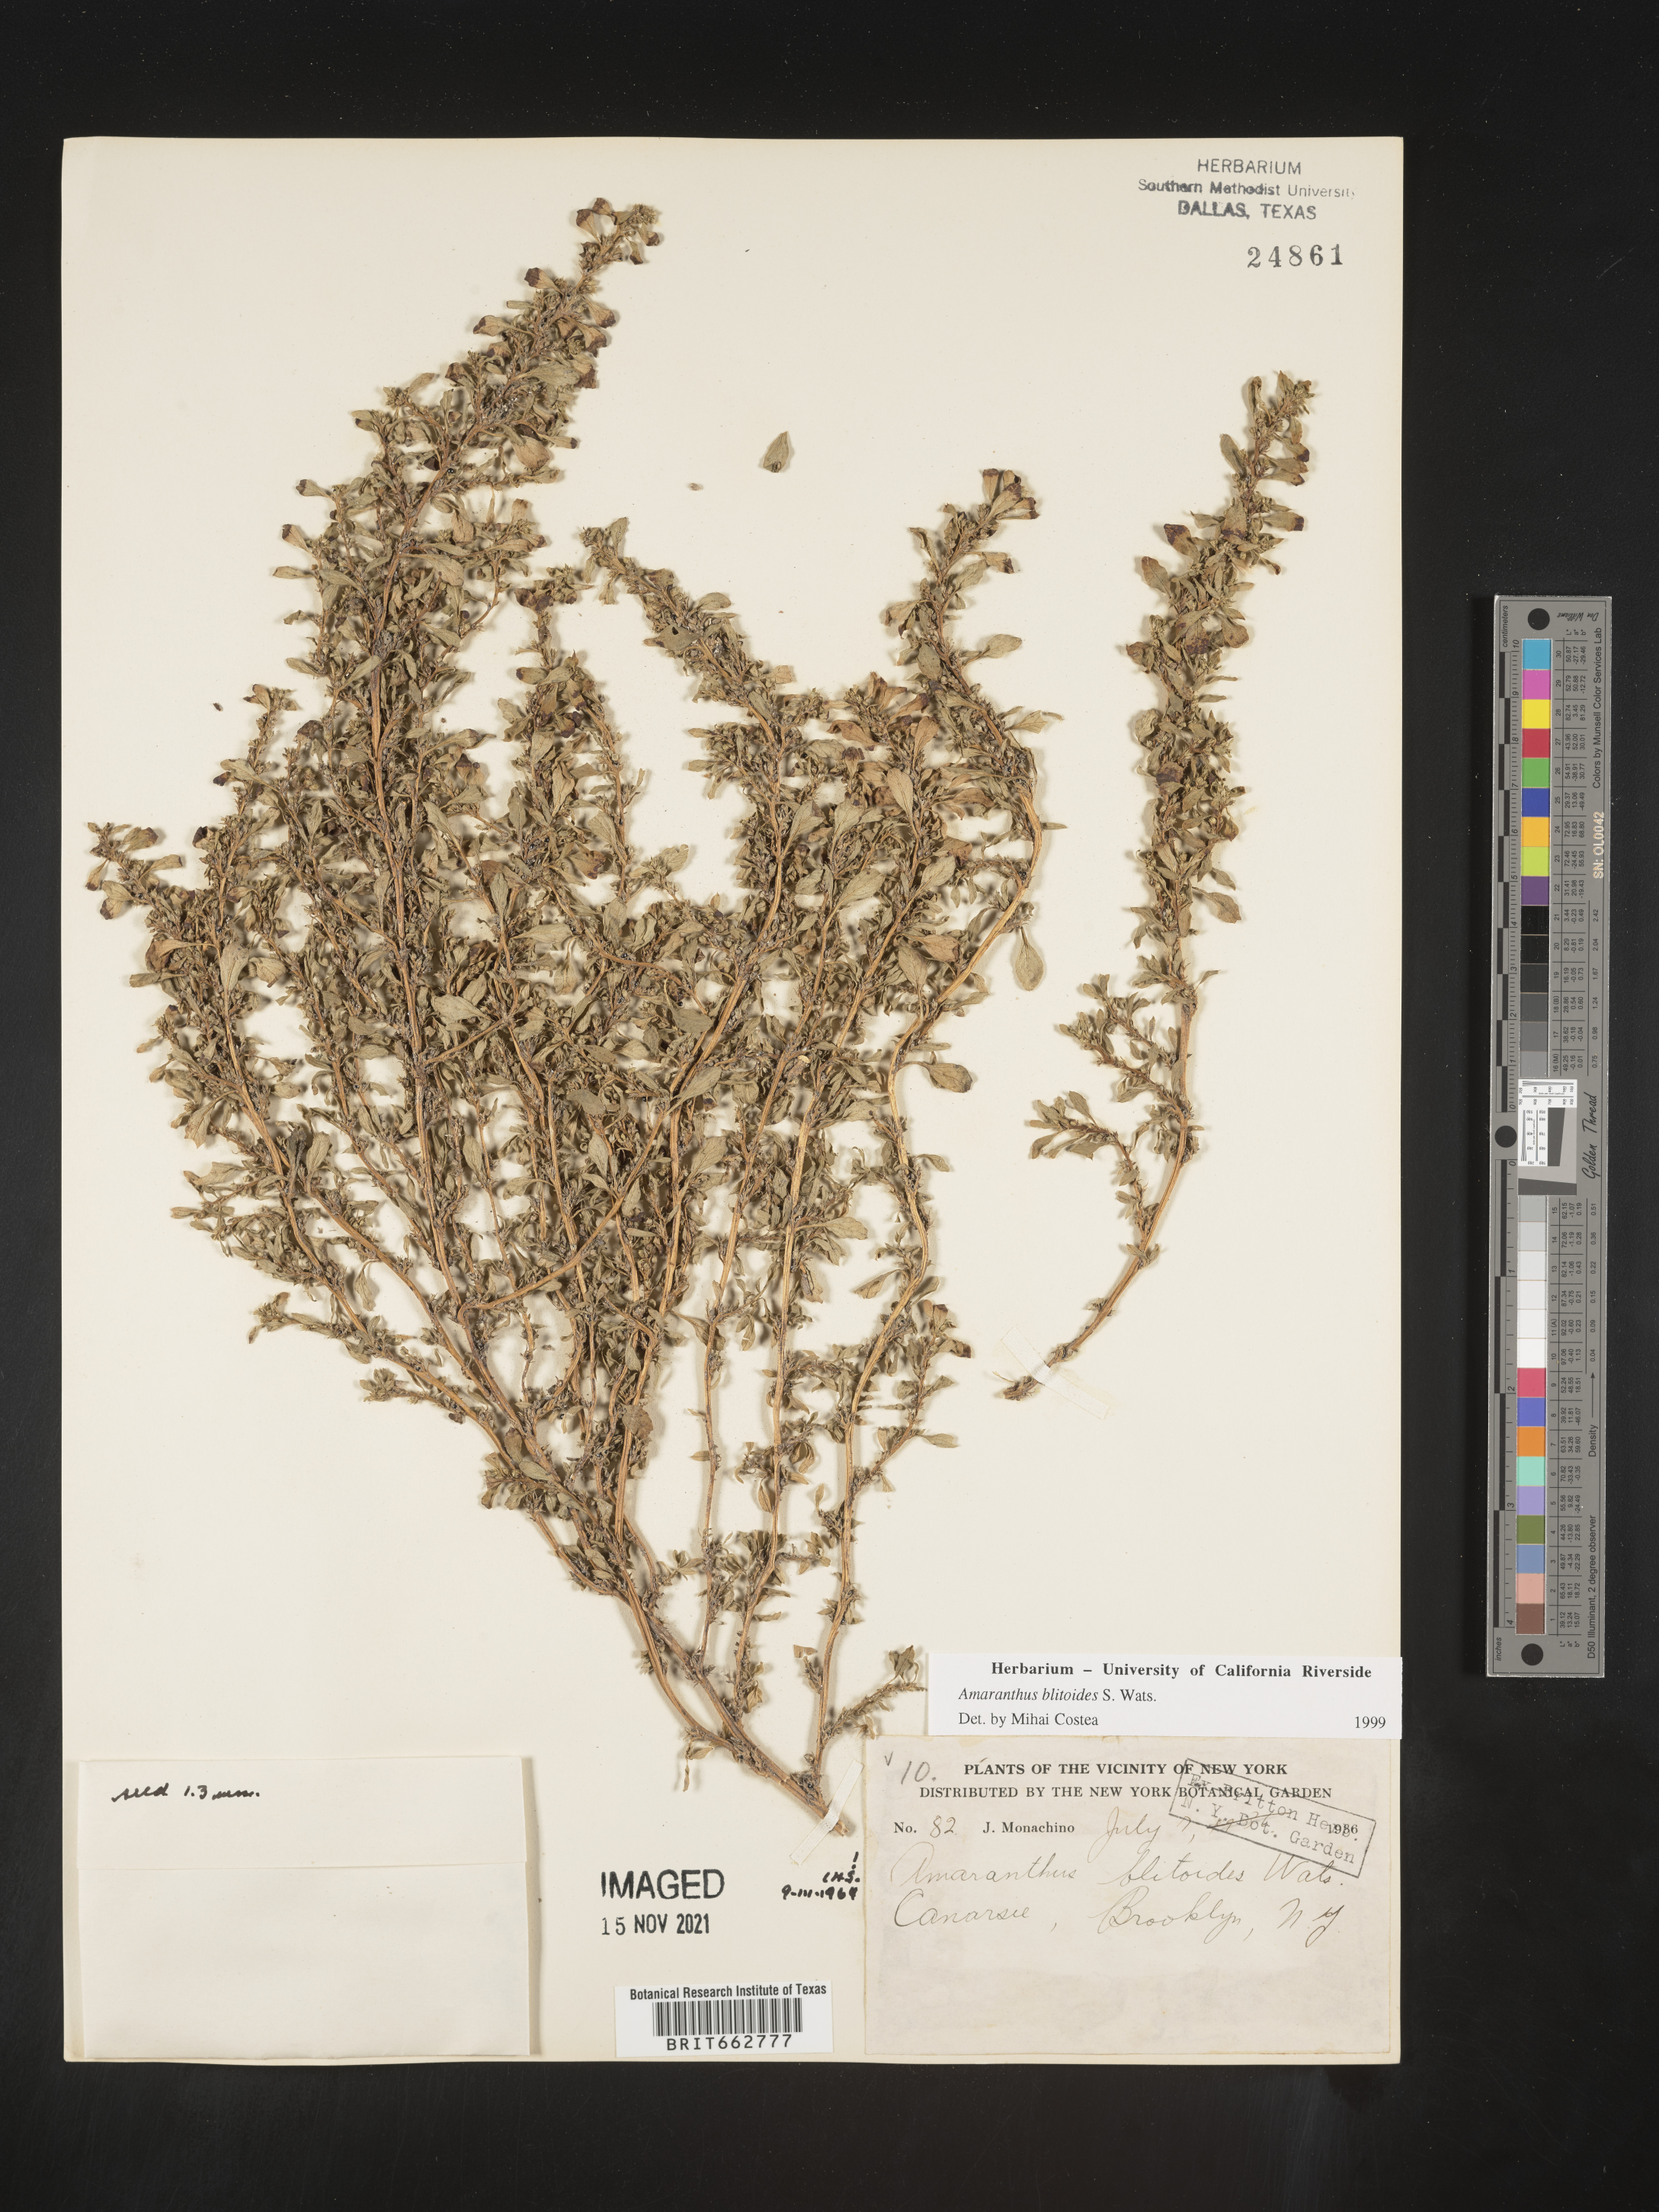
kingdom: Plantae
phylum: Tracheophyta
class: Magnoliopsida
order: Caryophyllales
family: Amaranthaceae
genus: Amaranthus
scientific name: Amaranthus blitoides
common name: Prostrate pigweed
